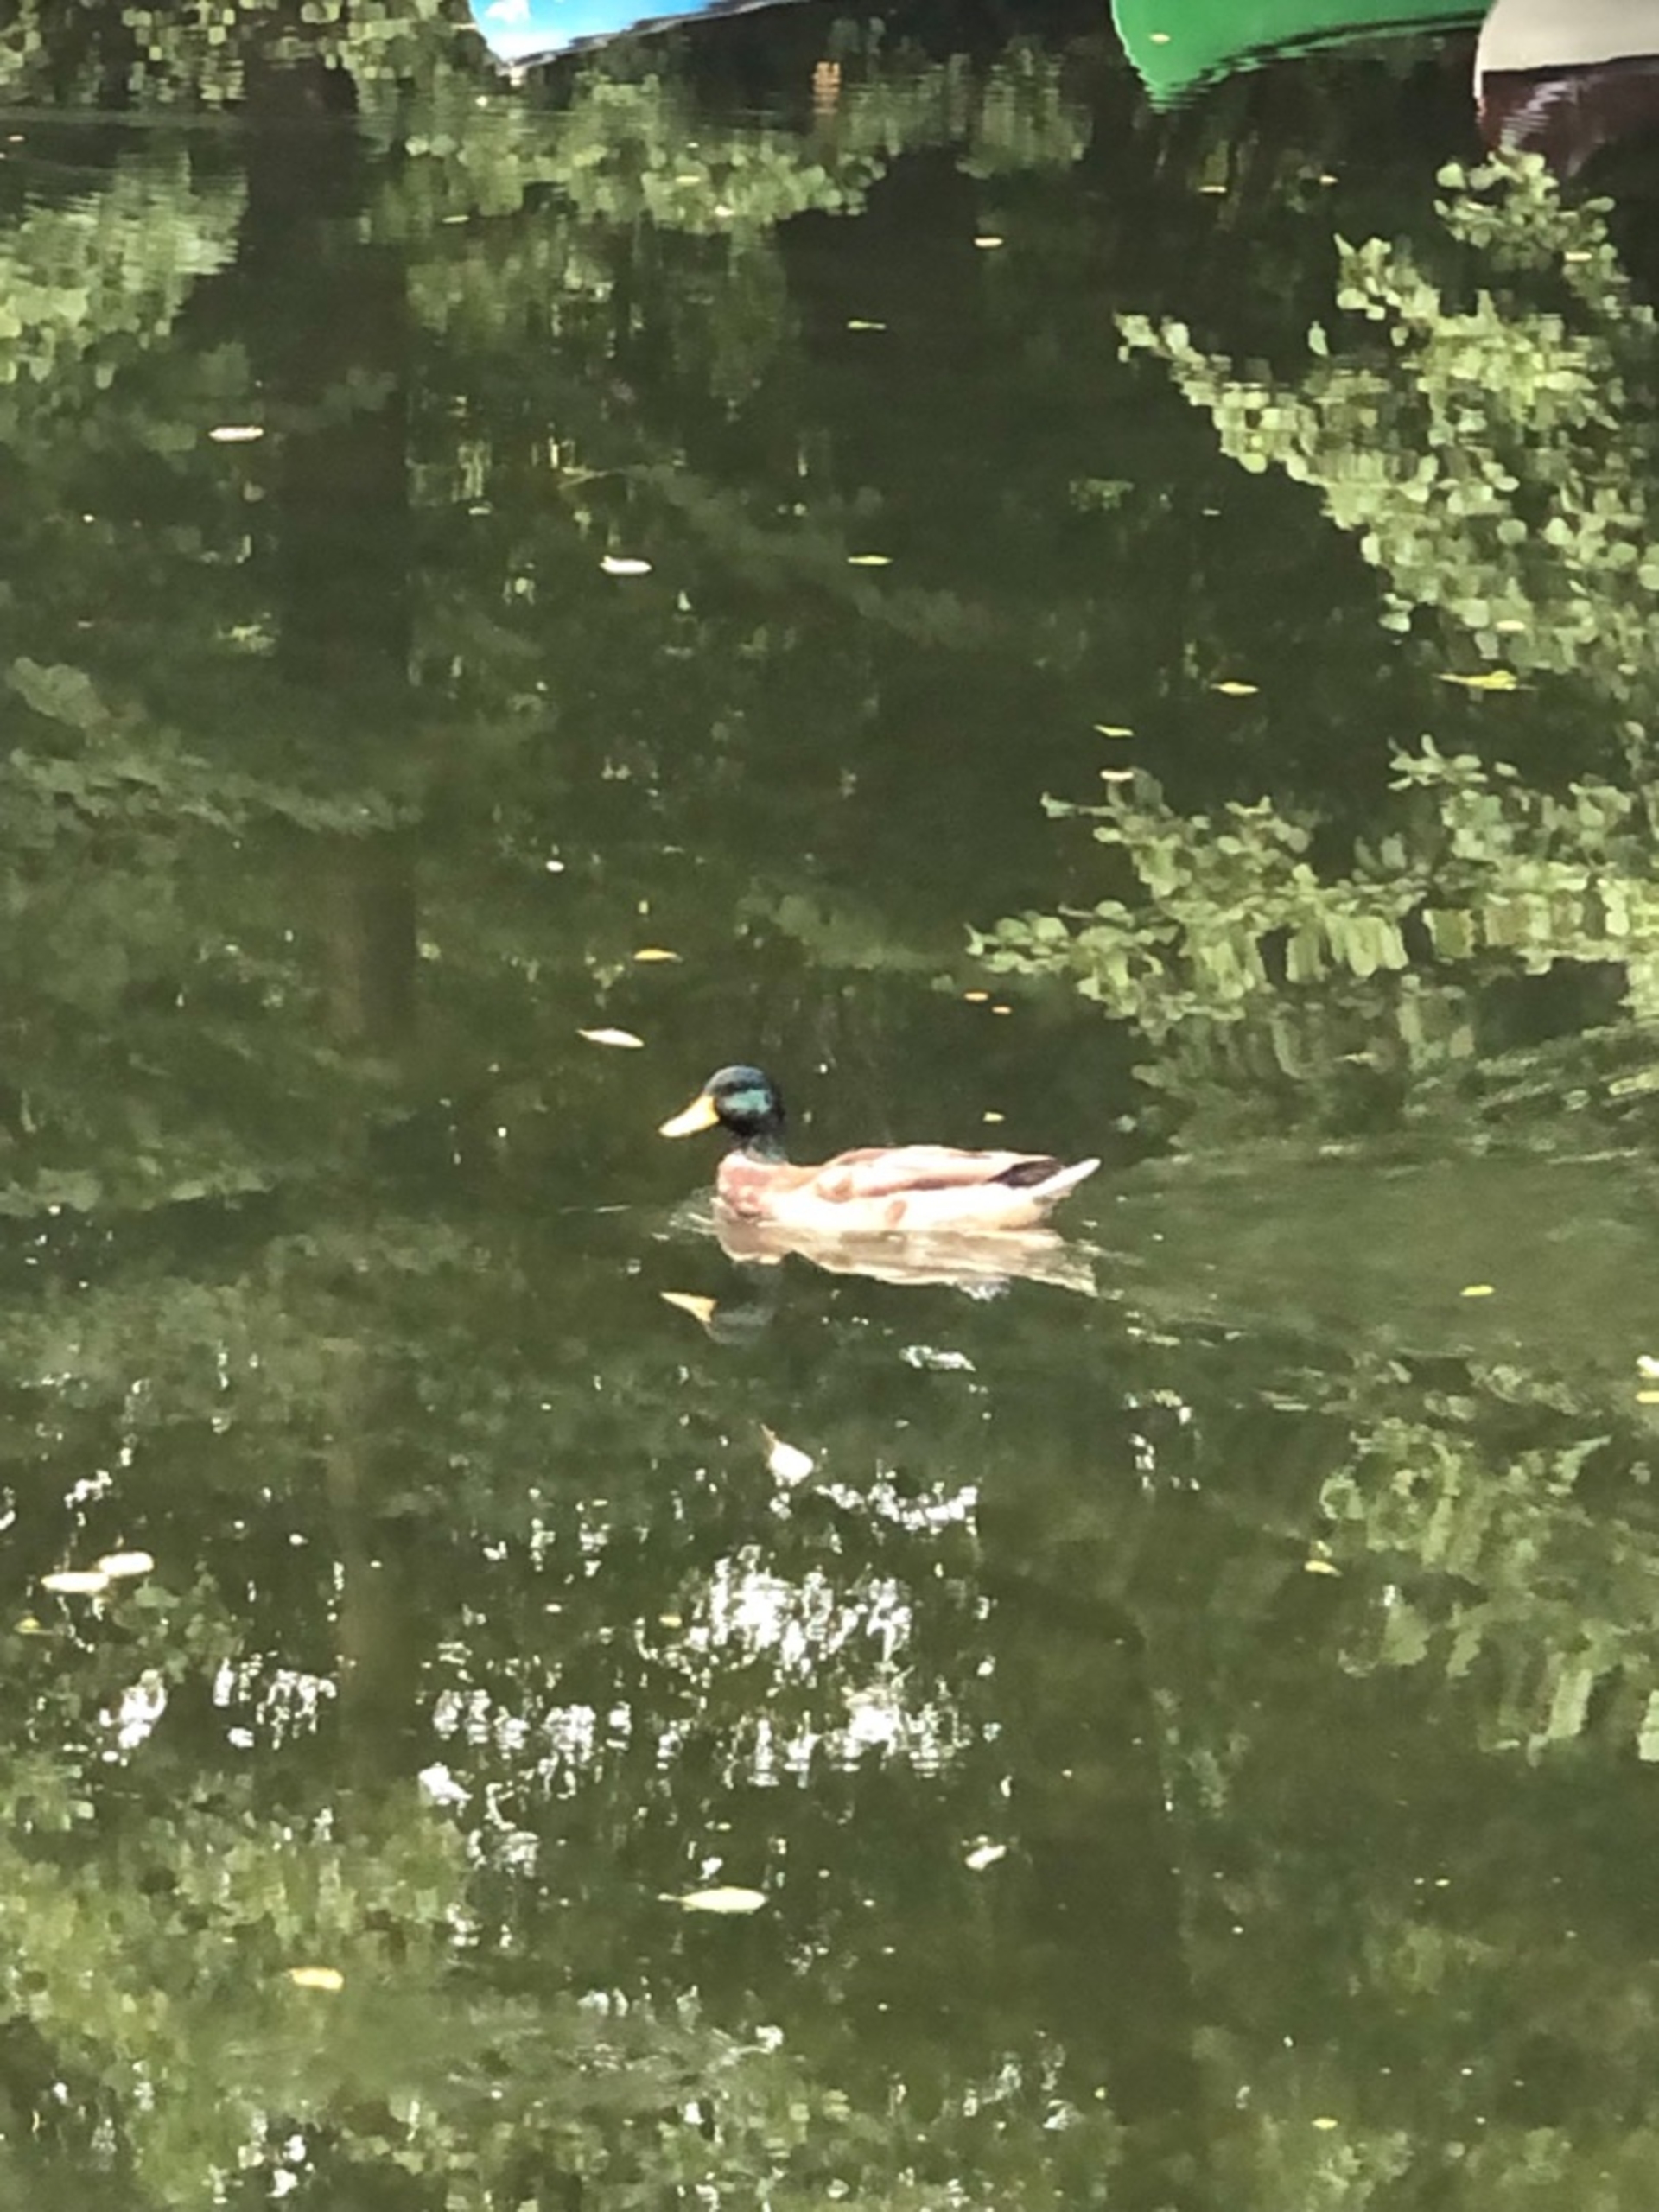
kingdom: Animalia
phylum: Chordata
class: Aves
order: Anseriformes
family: Anatidae
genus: Anas
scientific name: Anas platyrhynchos
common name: Gråand
